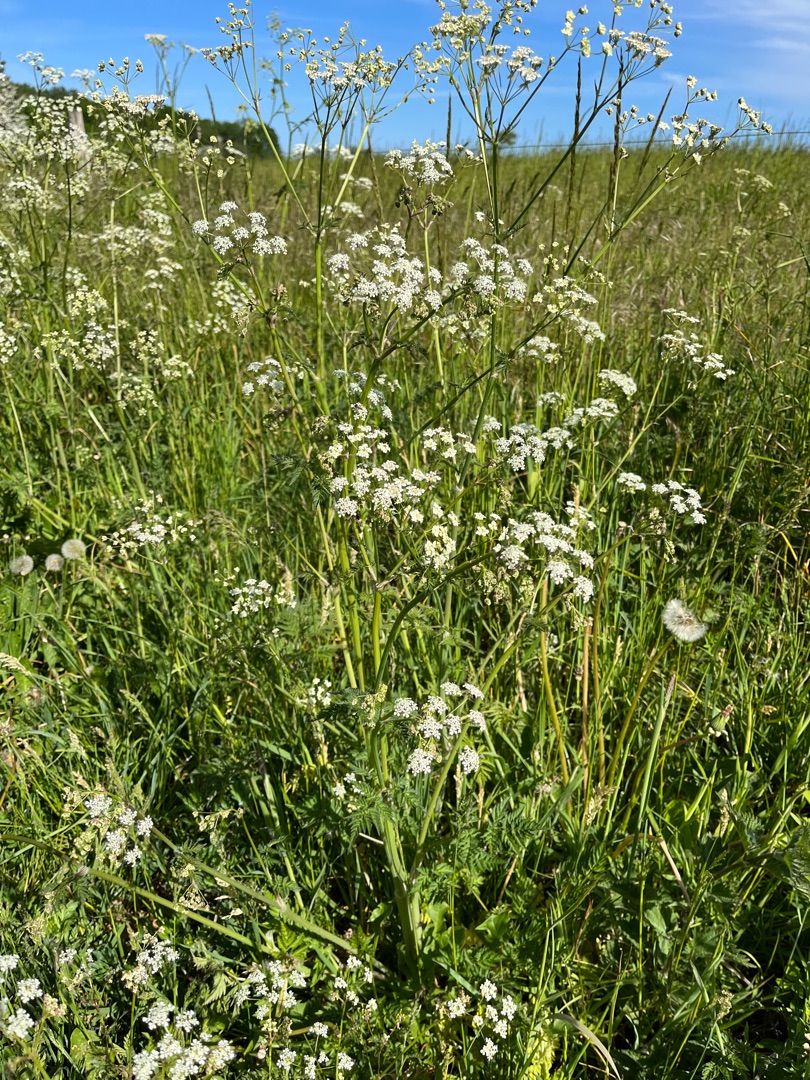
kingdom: Plantae
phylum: Tracheophyta
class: Magnoliopsida
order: Apiales
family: Apiaceae
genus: Anthriscus
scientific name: Anthriscus sylvestris
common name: Vild kørvel
